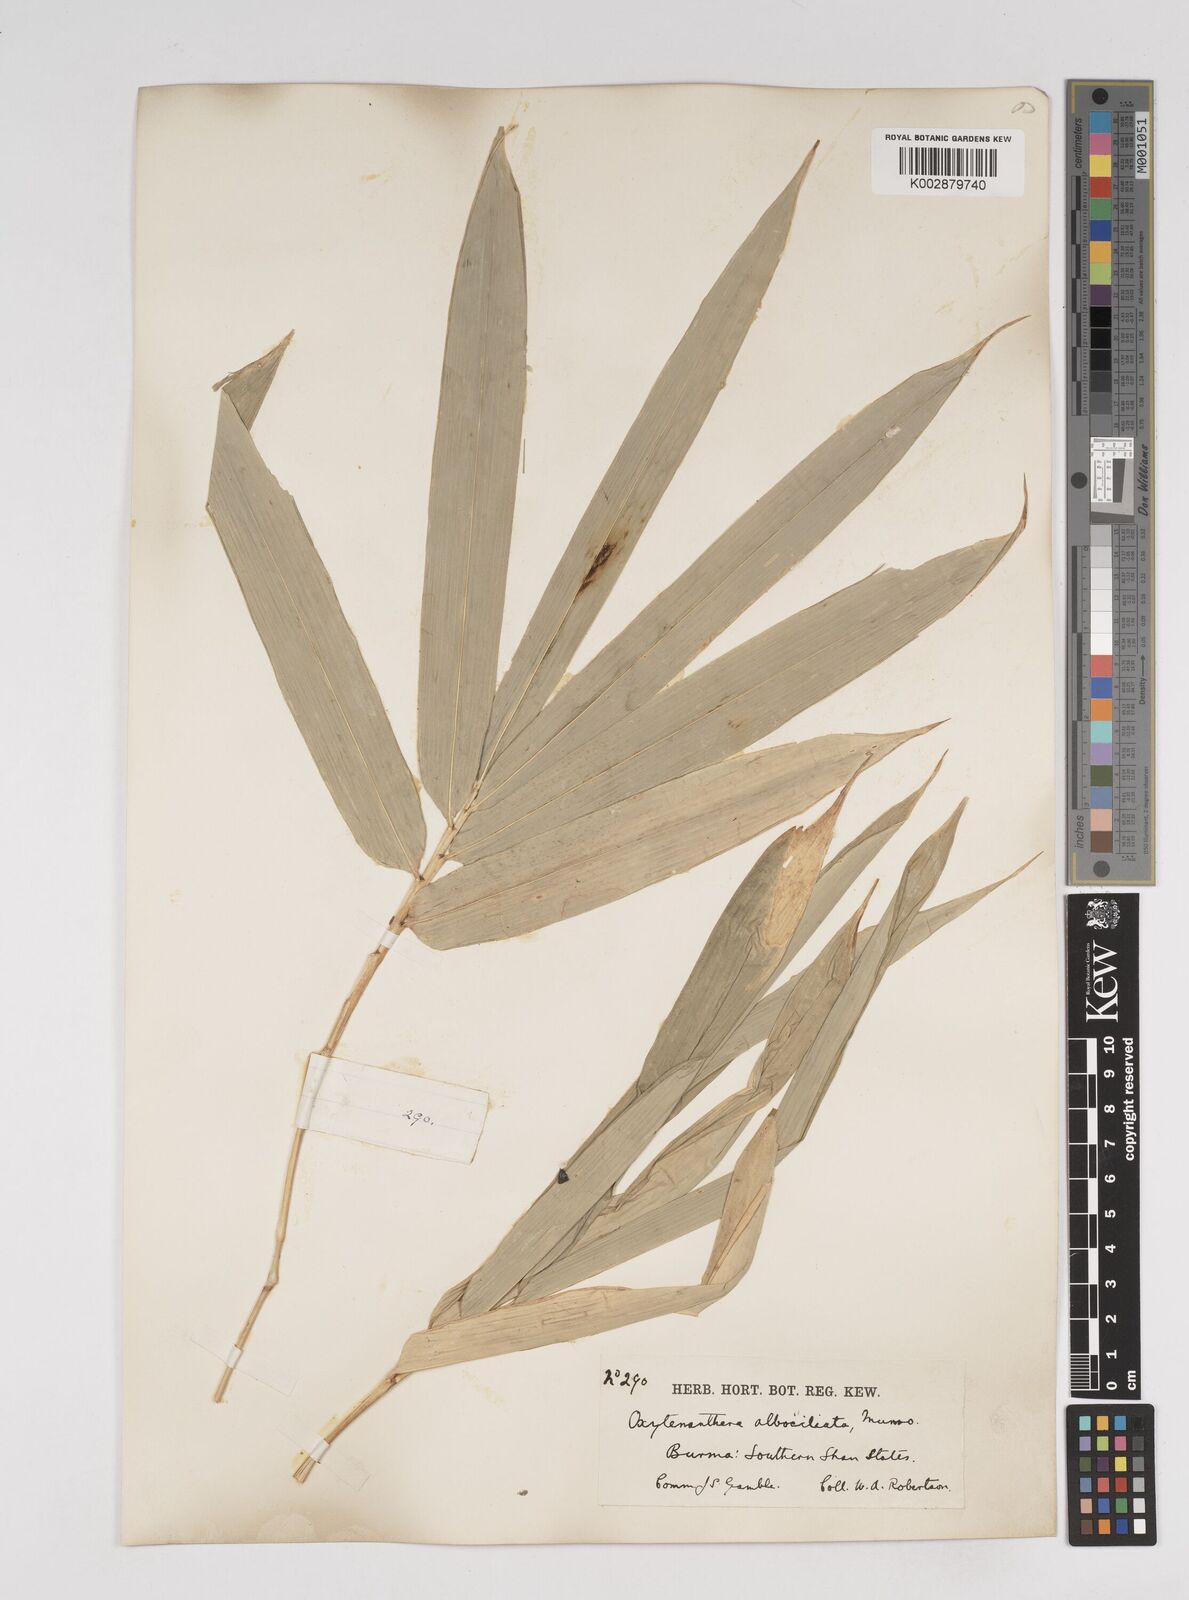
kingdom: Plantae
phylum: Tracheophyta
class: Liliopsida
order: Poales
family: Poaceae
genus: Gigantochloa
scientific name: Gigantochloa albociliata
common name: White-fringe gigantochloa
